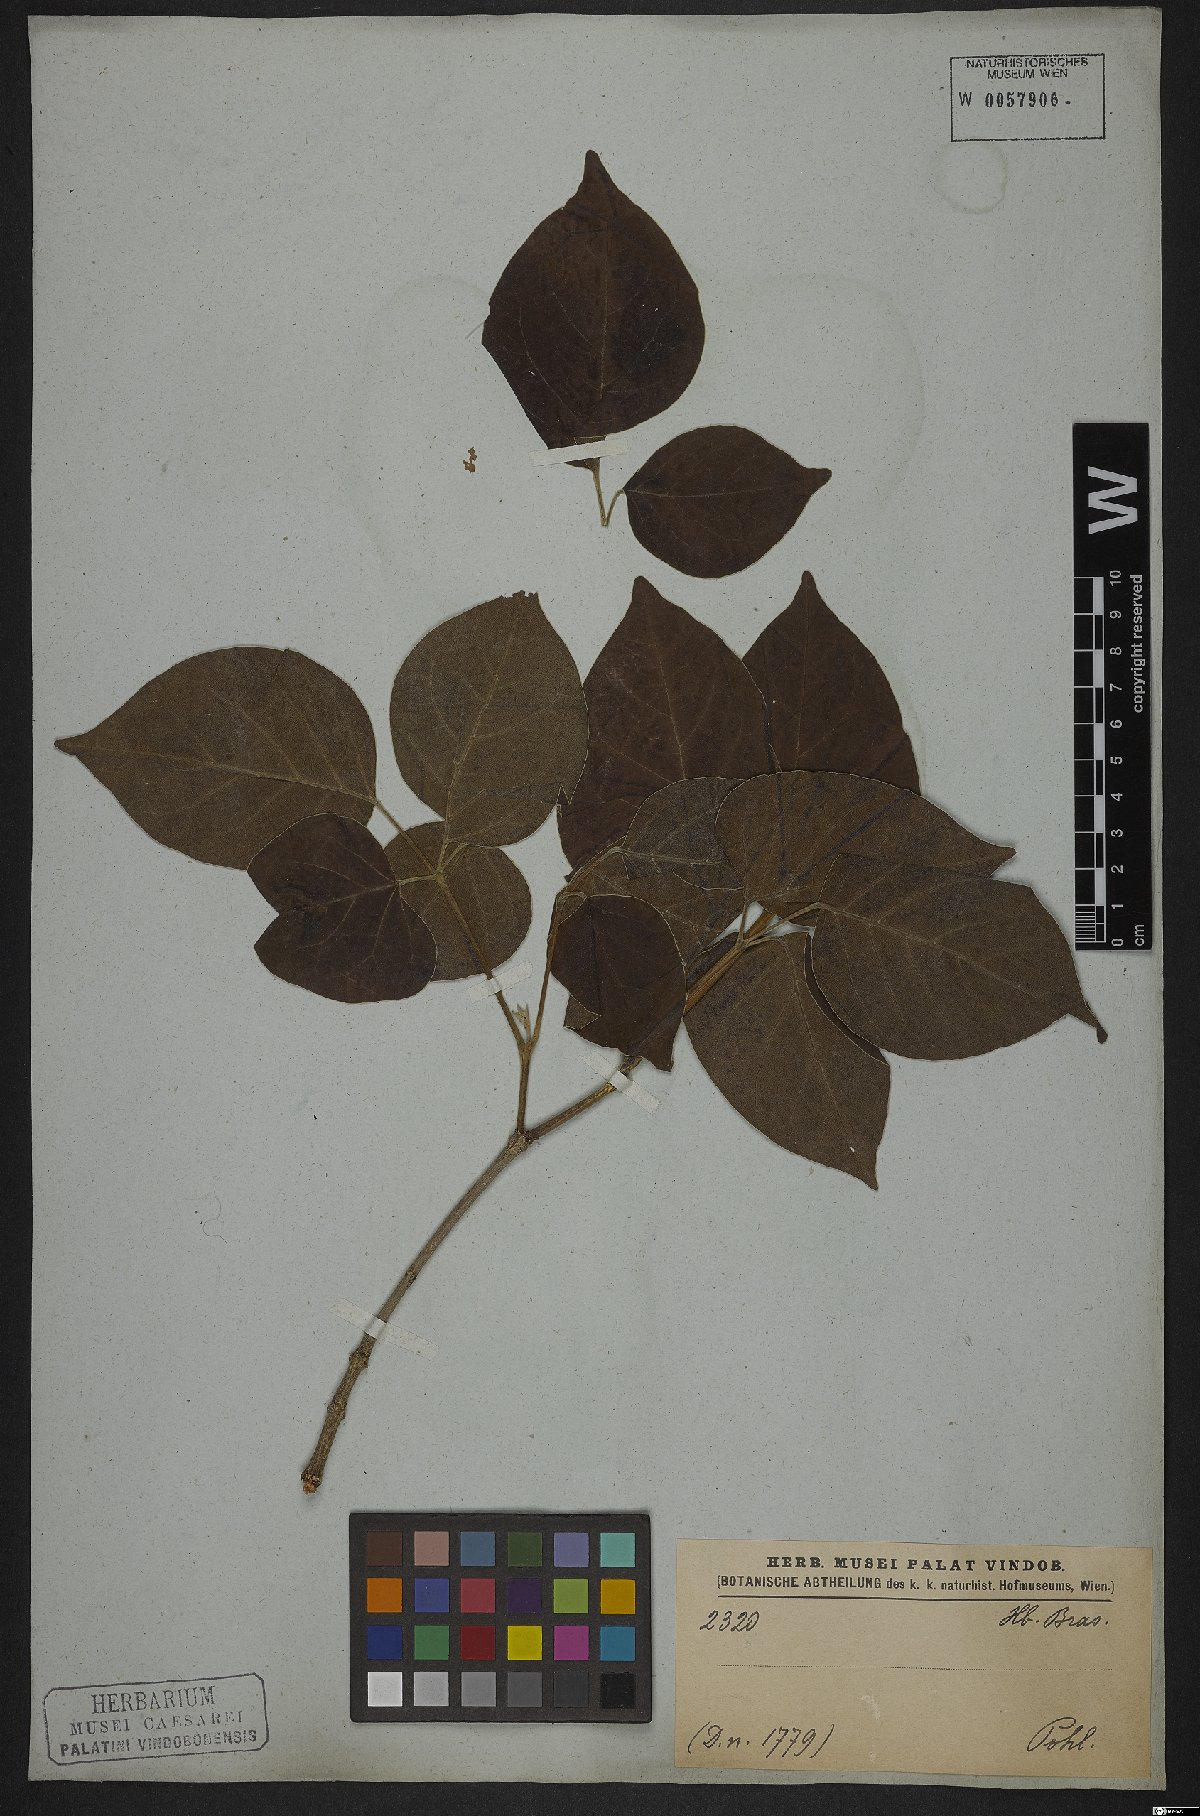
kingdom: Plantae
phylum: Tracheophyta
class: Magnoliopsida
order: Lamiales
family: Bignoniaceae
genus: Cuspidaria
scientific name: Cuspidaria lateriflora
